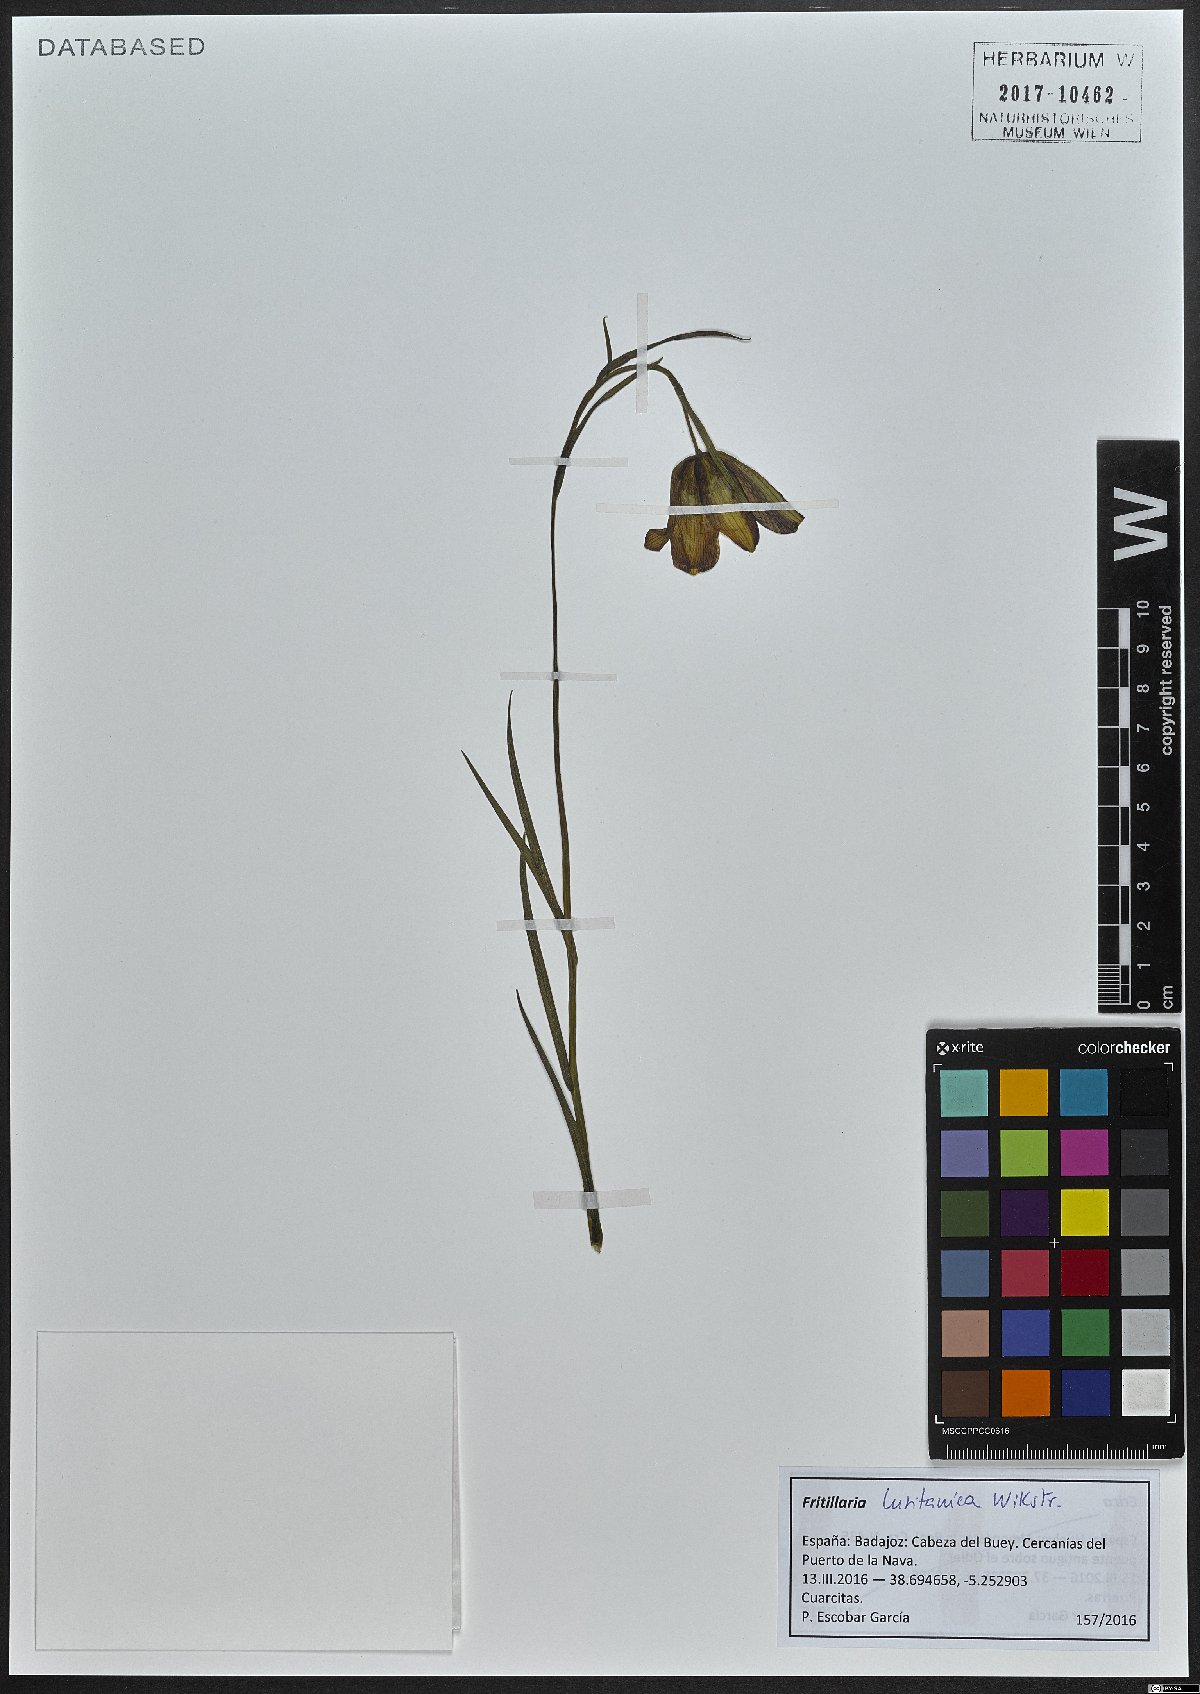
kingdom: Plantae
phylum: Tracheophyta
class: Liliopsida
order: Liliales
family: Liliaceae
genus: Fritillaria
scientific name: Fritillaria lusitanica
